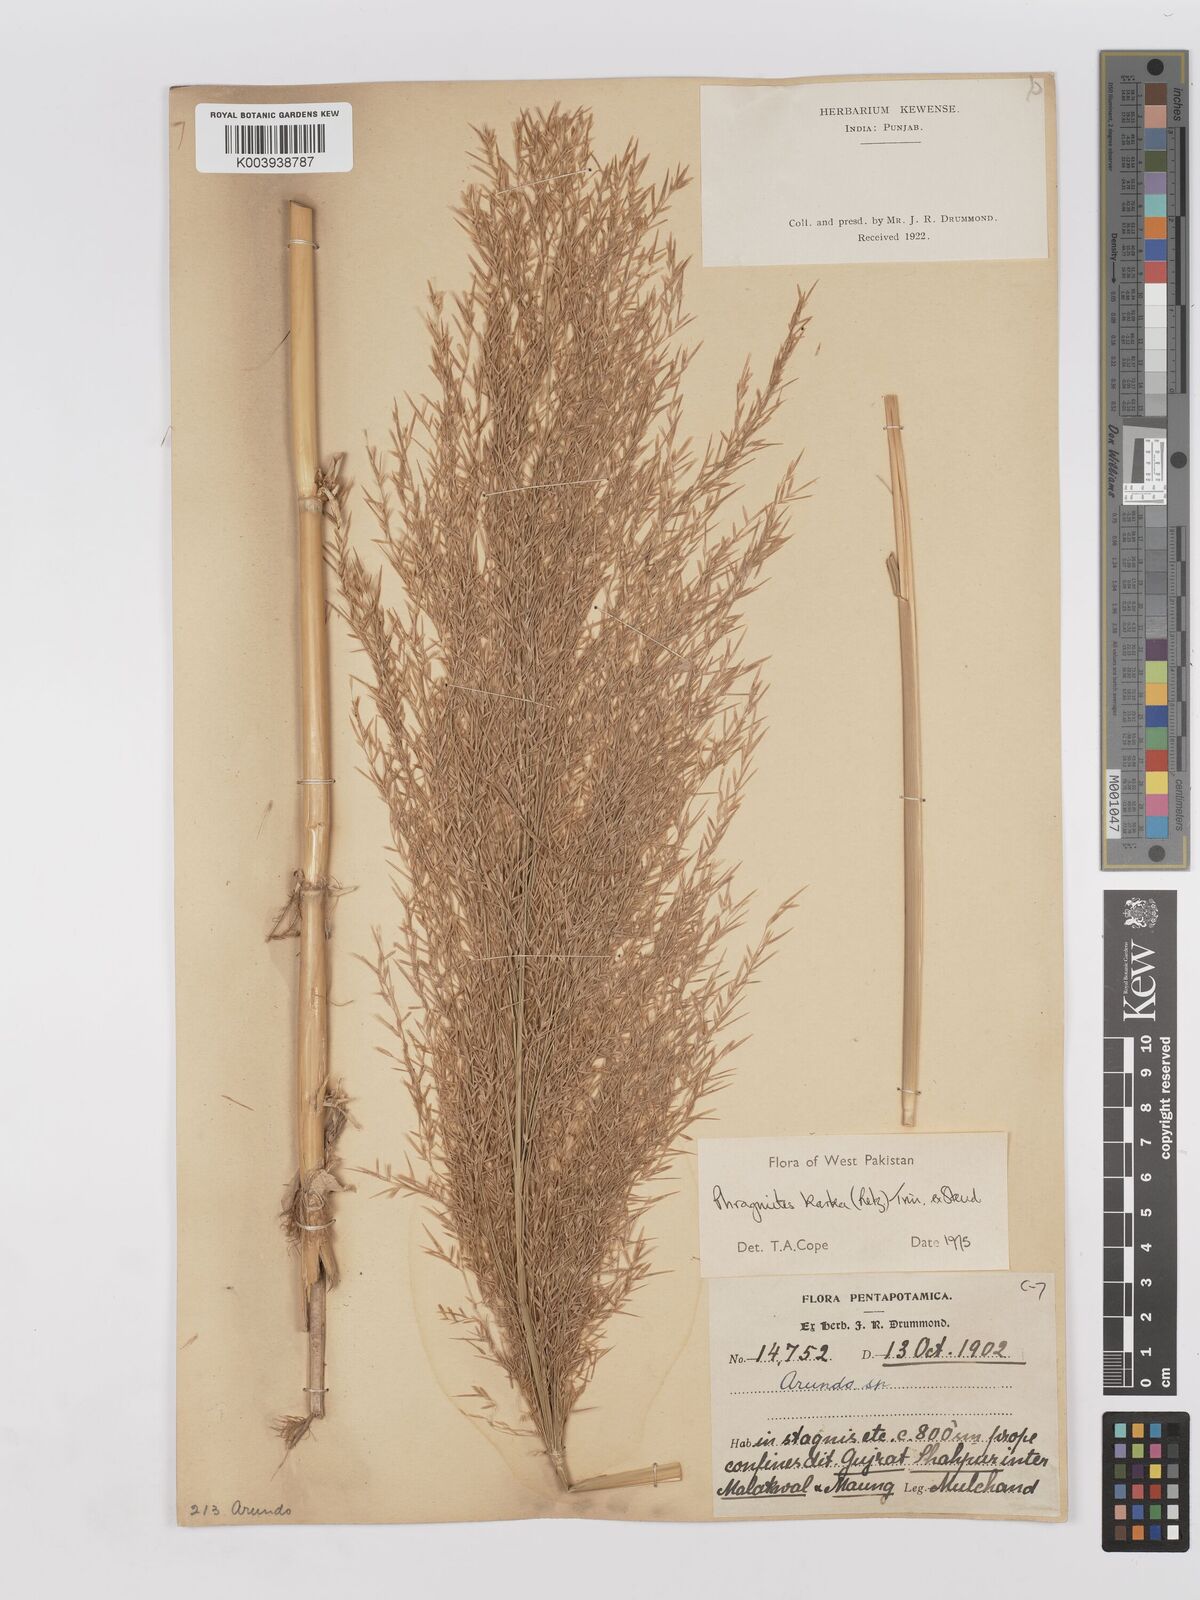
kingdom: Plantae
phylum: Tracheophyta
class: Liliopsida
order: Poales
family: Poaceae
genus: Phragmites
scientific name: Phragmites karka
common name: Tropical reed
